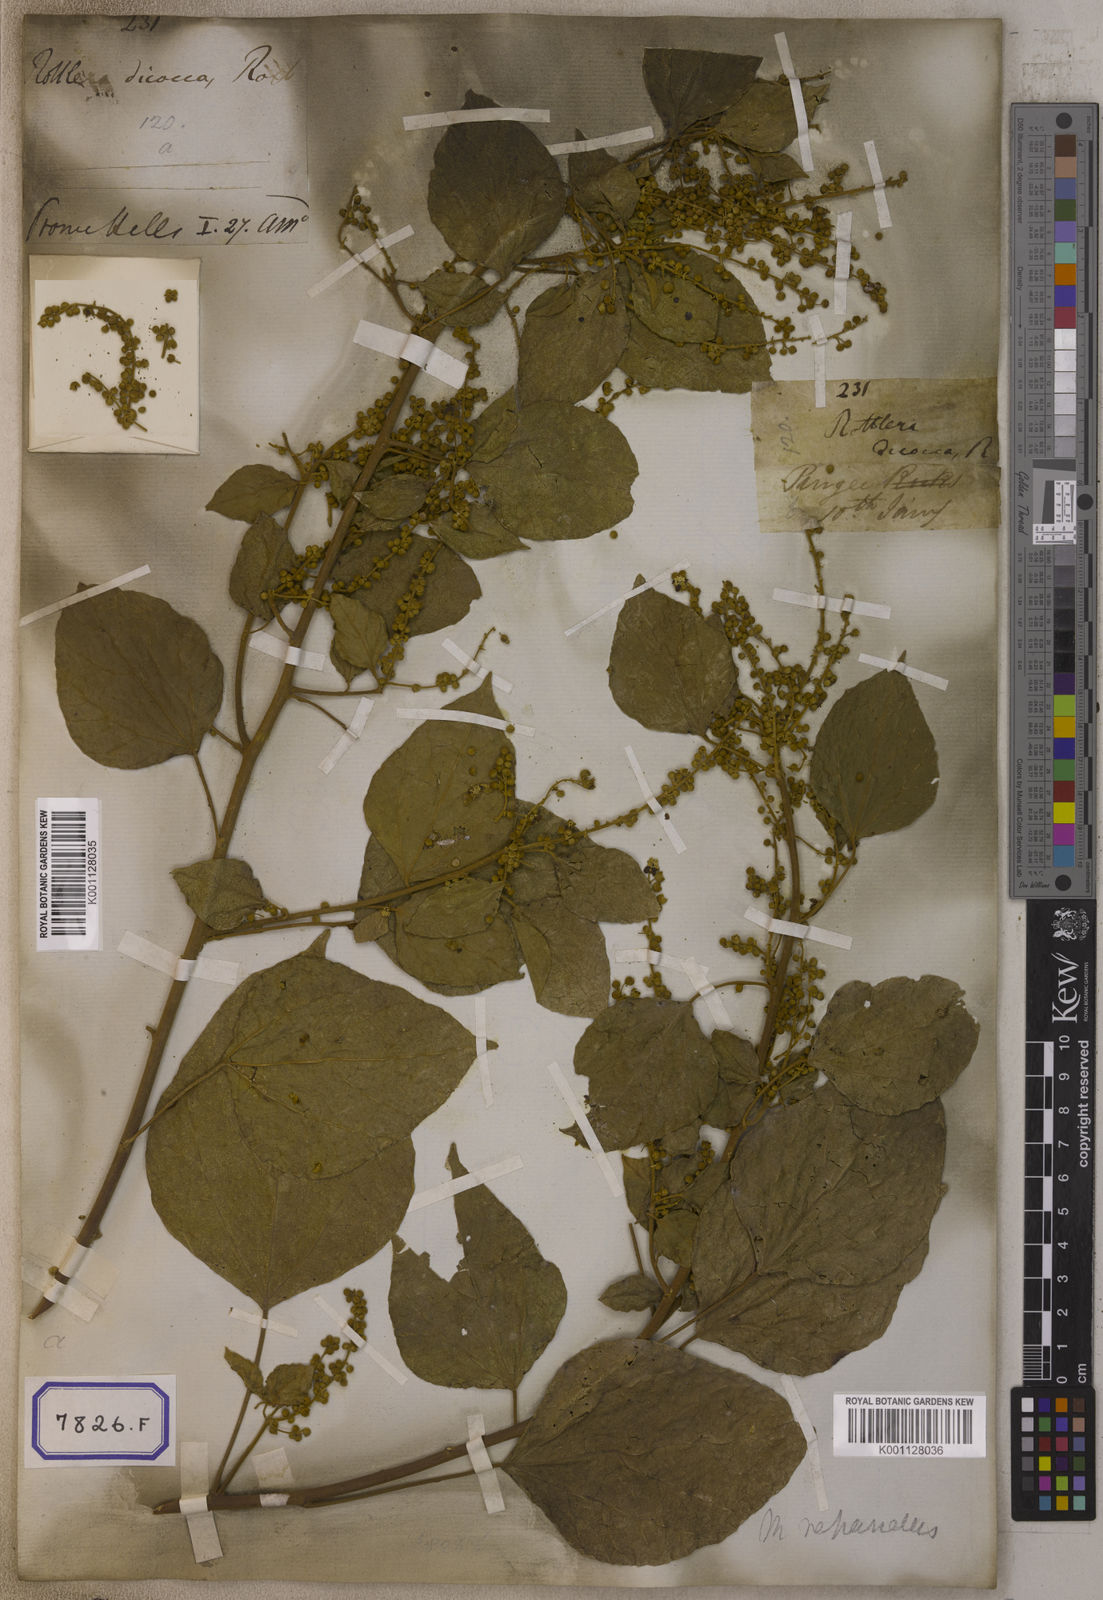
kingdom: Plantae
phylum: Tracheophyta
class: Magnoliopsida
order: Malpighiales
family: Euphorbiaceae
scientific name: Euphorbiaceae
